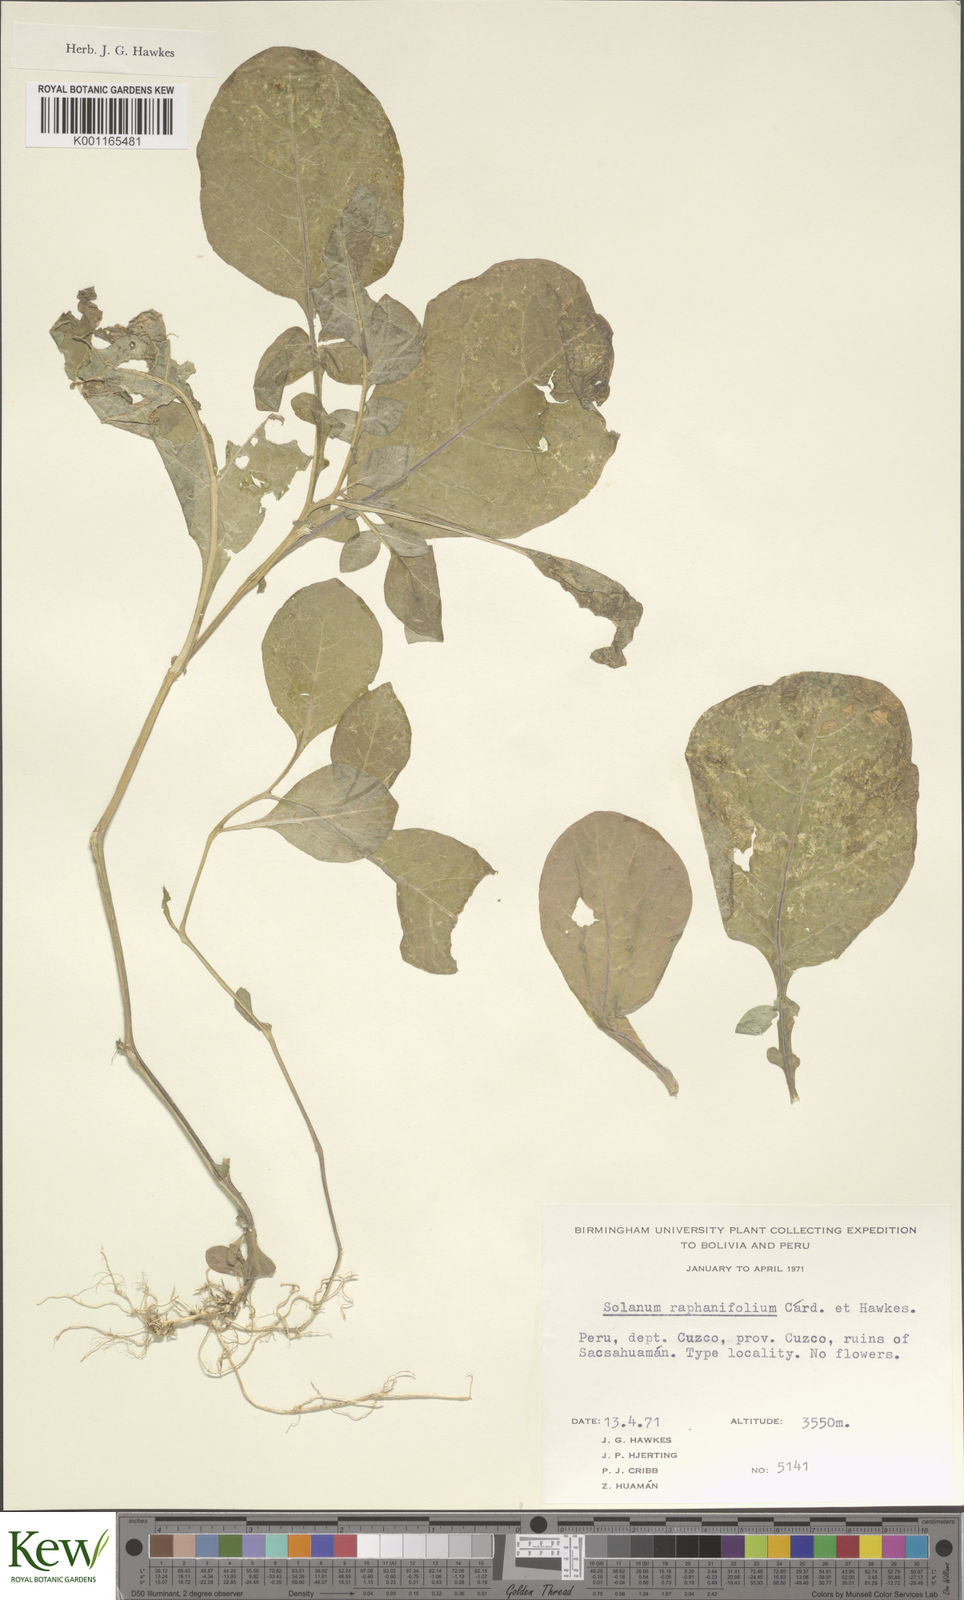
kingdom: Plantae
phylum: Tracheophyta
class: Magnoliopsida
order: Solanales
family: Solanaceae
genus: Solanum
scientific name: Solanum raphanifolium
